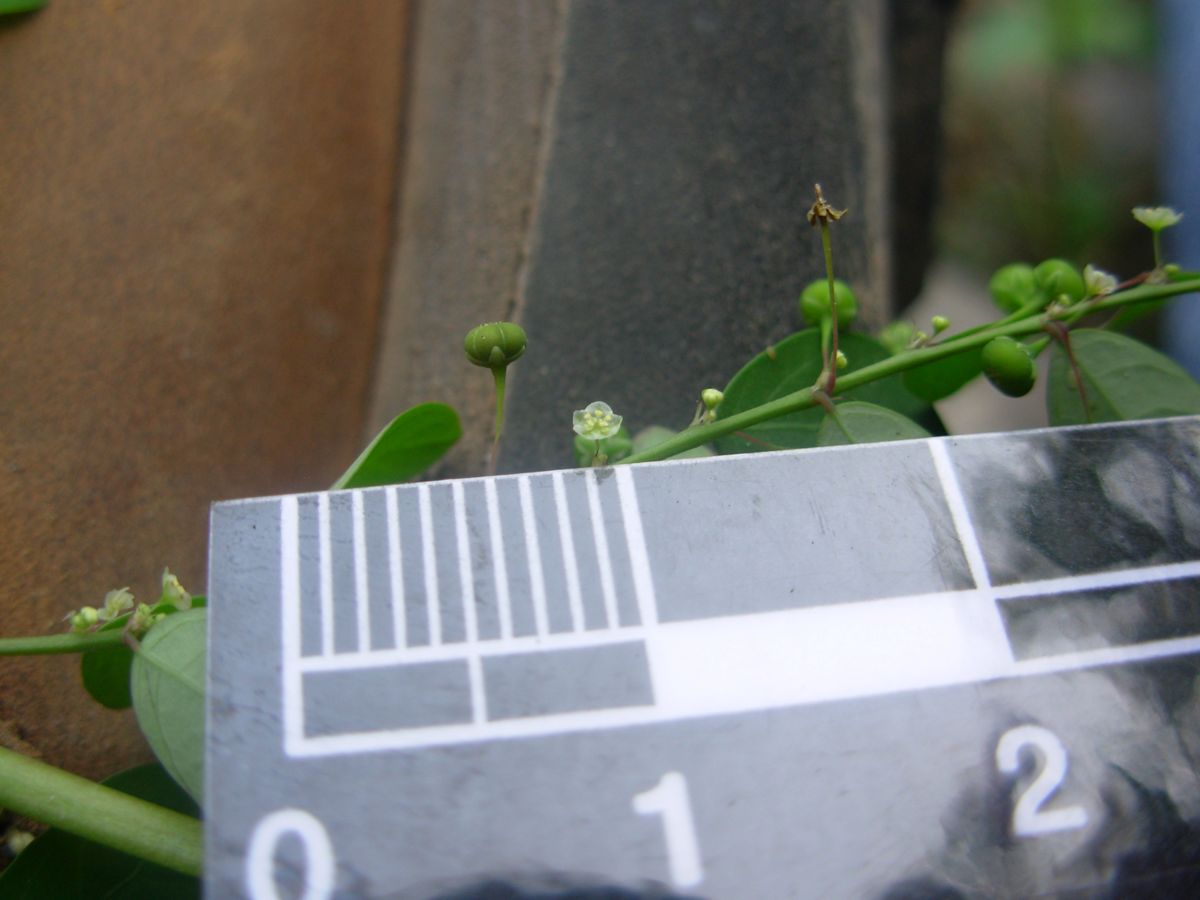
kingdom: Plantae
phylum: Tracheophyta
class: Magnoliopsida
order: Malpighiales
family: Phyllanthaceae
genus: Phyllanthus
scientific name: Phyllanthus tenellus
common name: Mascarene island leaf-flower
